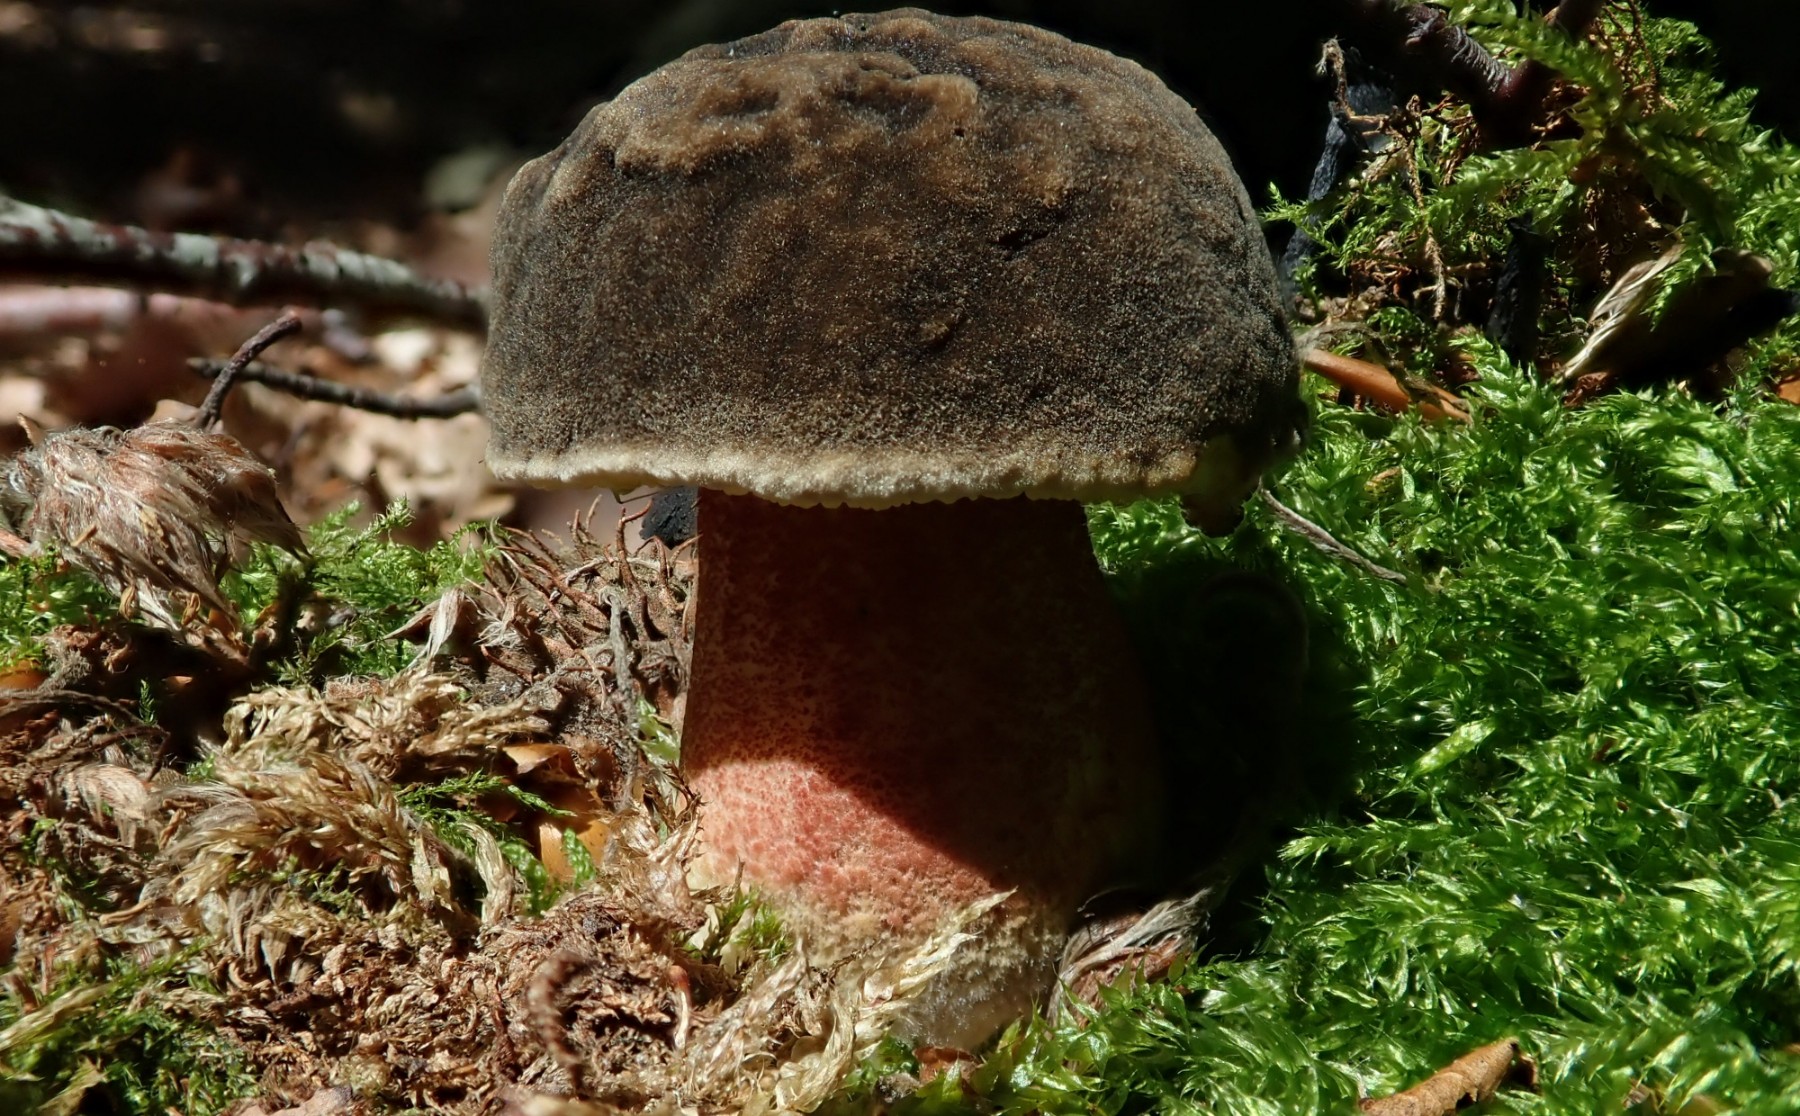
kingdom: Fungi
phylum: Basidiomycota
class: Agaricomycetes
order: Boletales
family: Boletaceae
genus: Xerocomellus
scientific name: Xerocomellus chrysenteron
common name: rødsprukken rørhat
